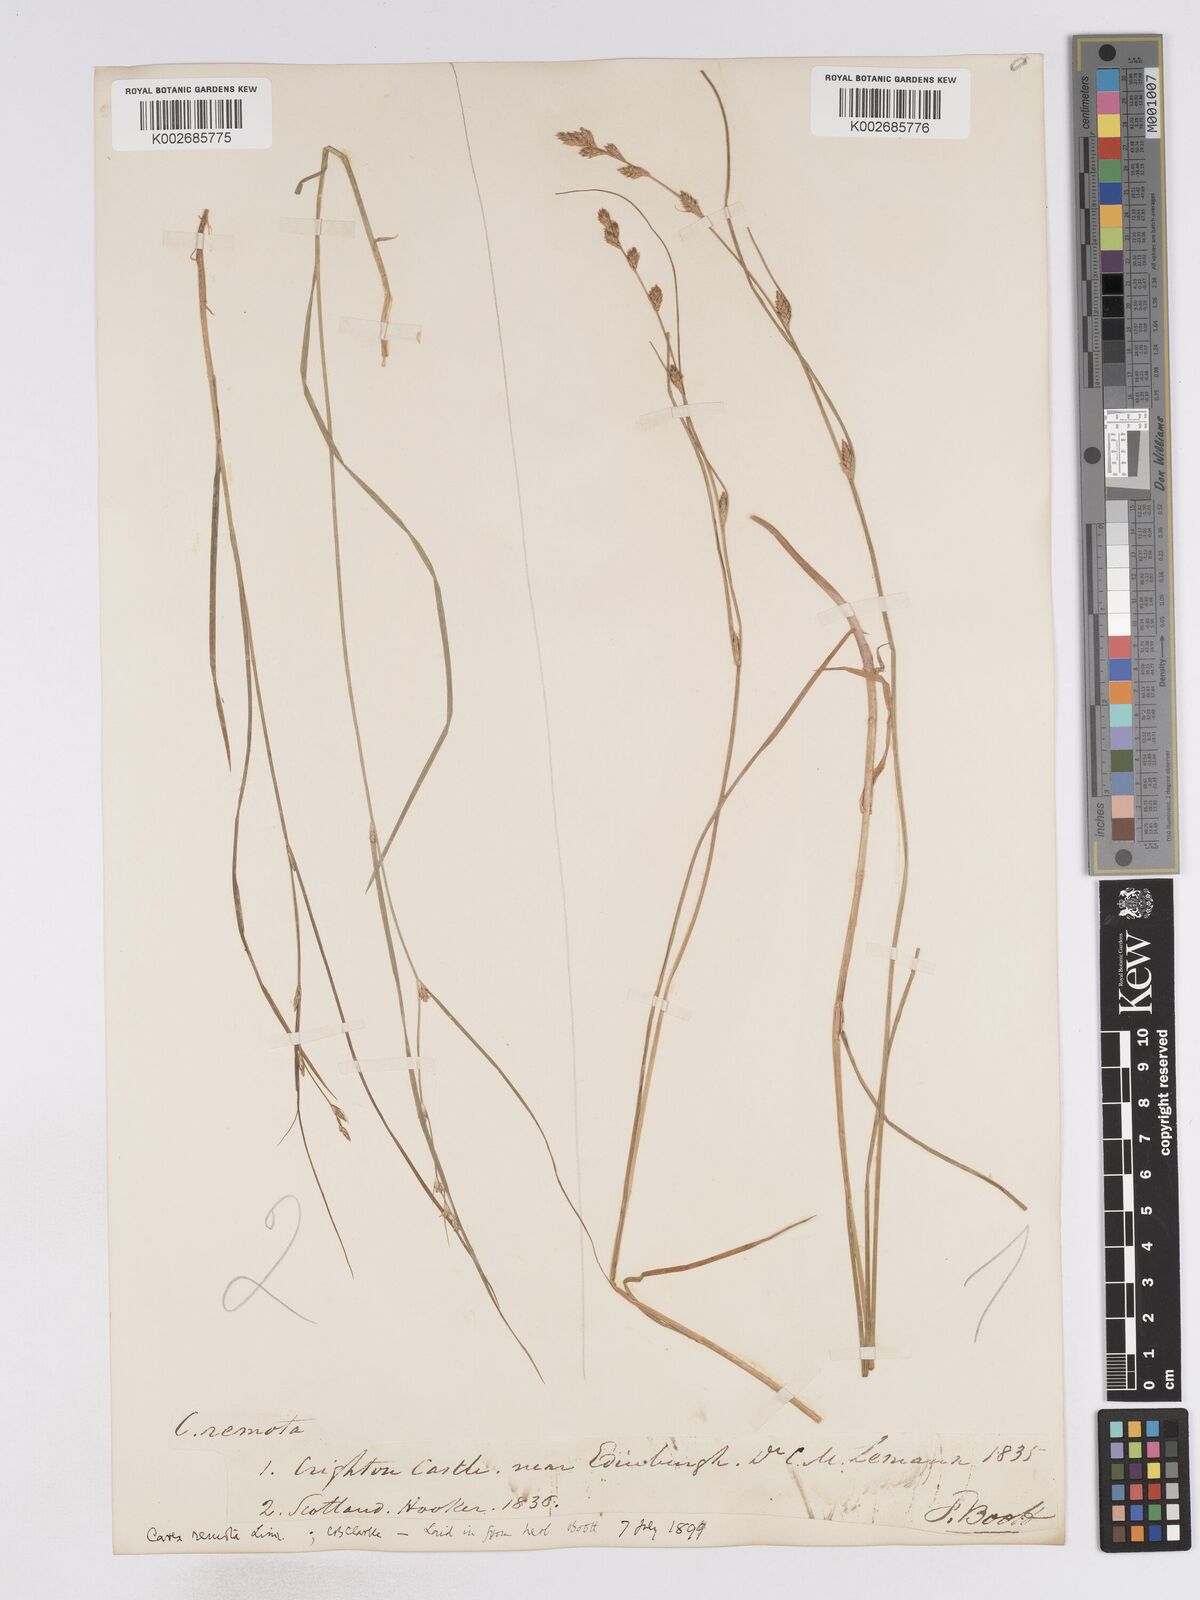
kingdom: Plantae
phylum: Tracheophyta
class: Liliopsida
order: Poales
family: Cyperaceae
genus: Carex
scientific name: Carex remota
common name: Remote sedge
